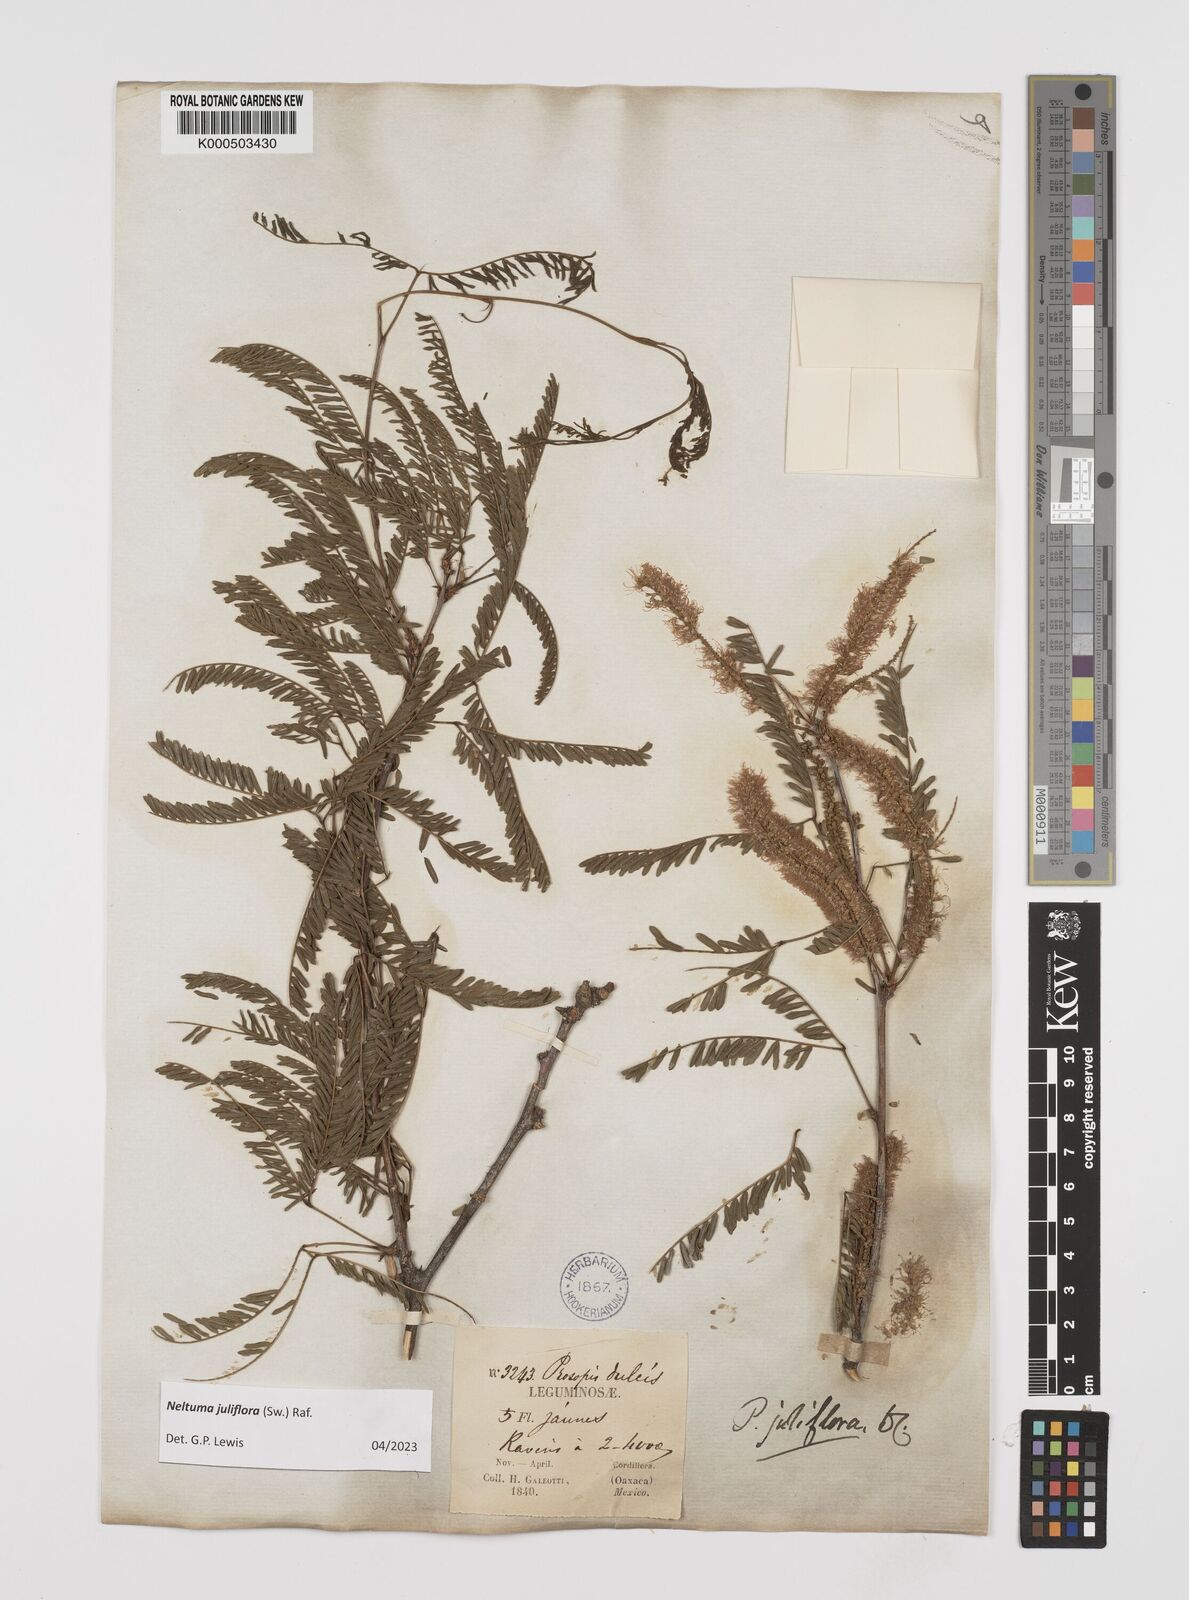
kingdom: Plantae
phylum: Tracheophyta
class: Magnoliopsida
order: Fabales
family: Fabaceae
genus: Prosopis
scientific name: Prosopis juliflora
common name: Mesquite
